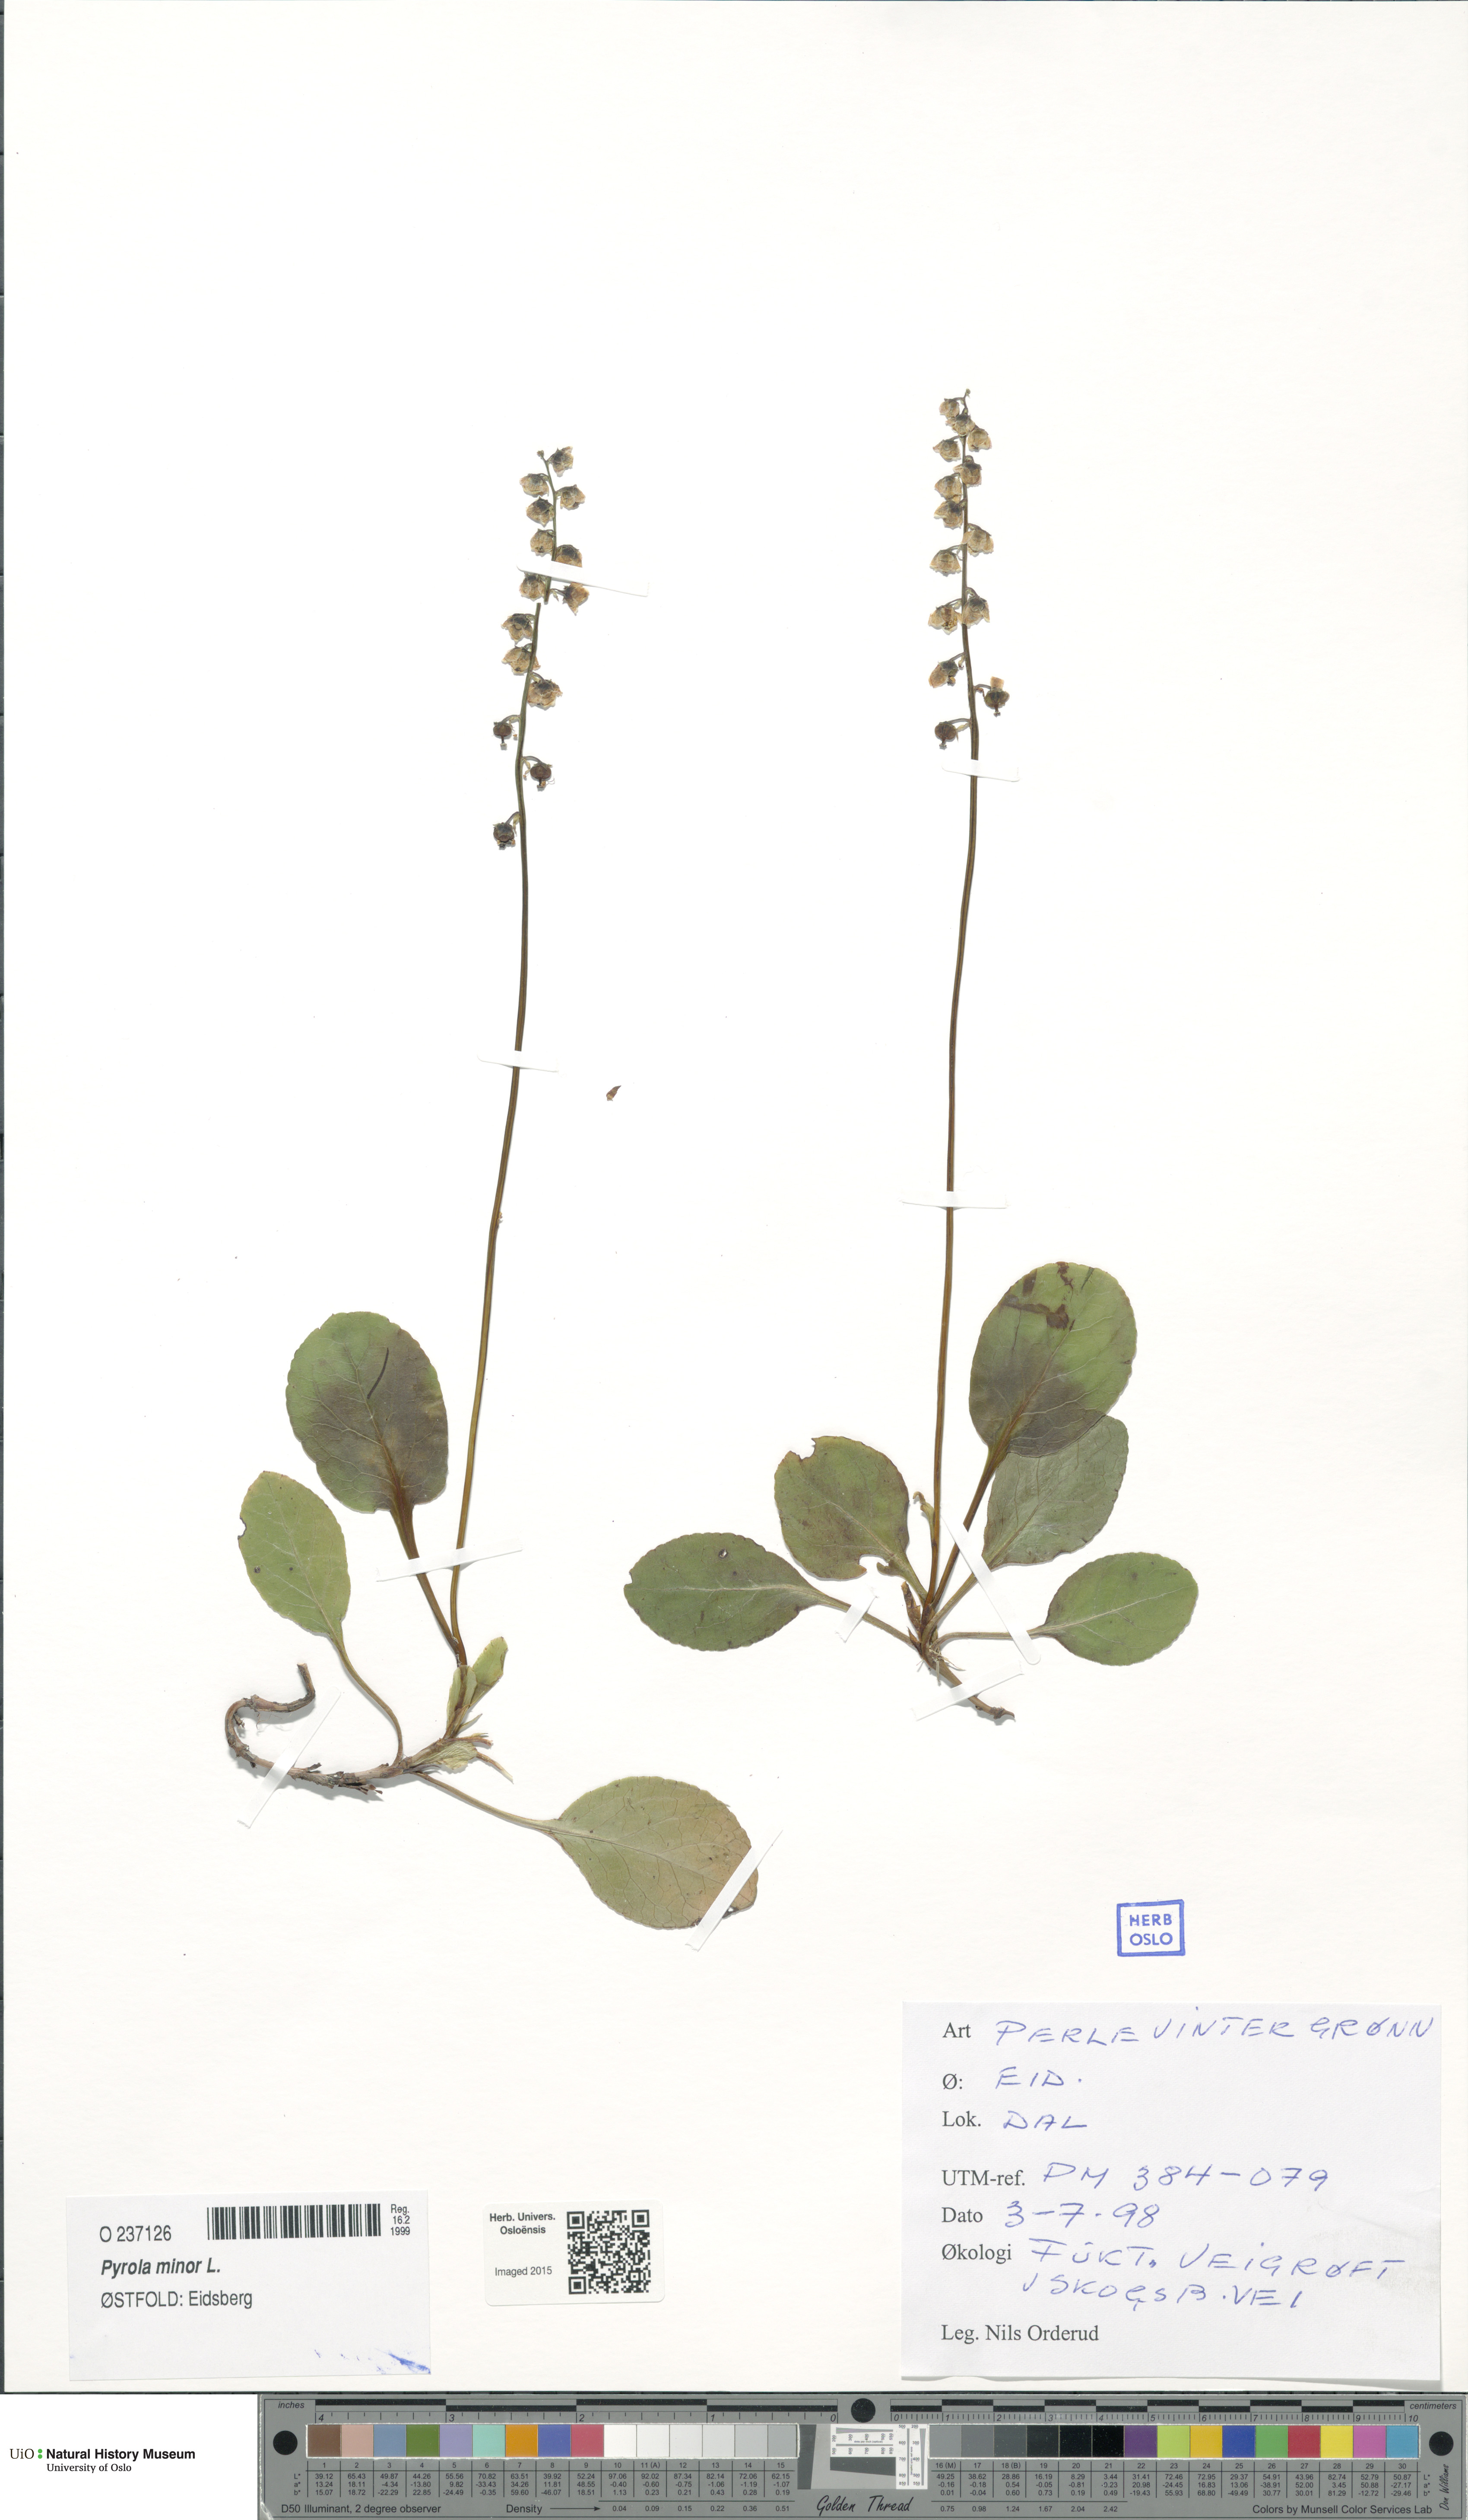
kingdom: Plantae
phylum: Tracheophyta
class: Magnoliopsida
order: Ericales
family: Ericaceae
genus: Pyrola
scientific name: Pyrola minor
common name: Common wintergreen
